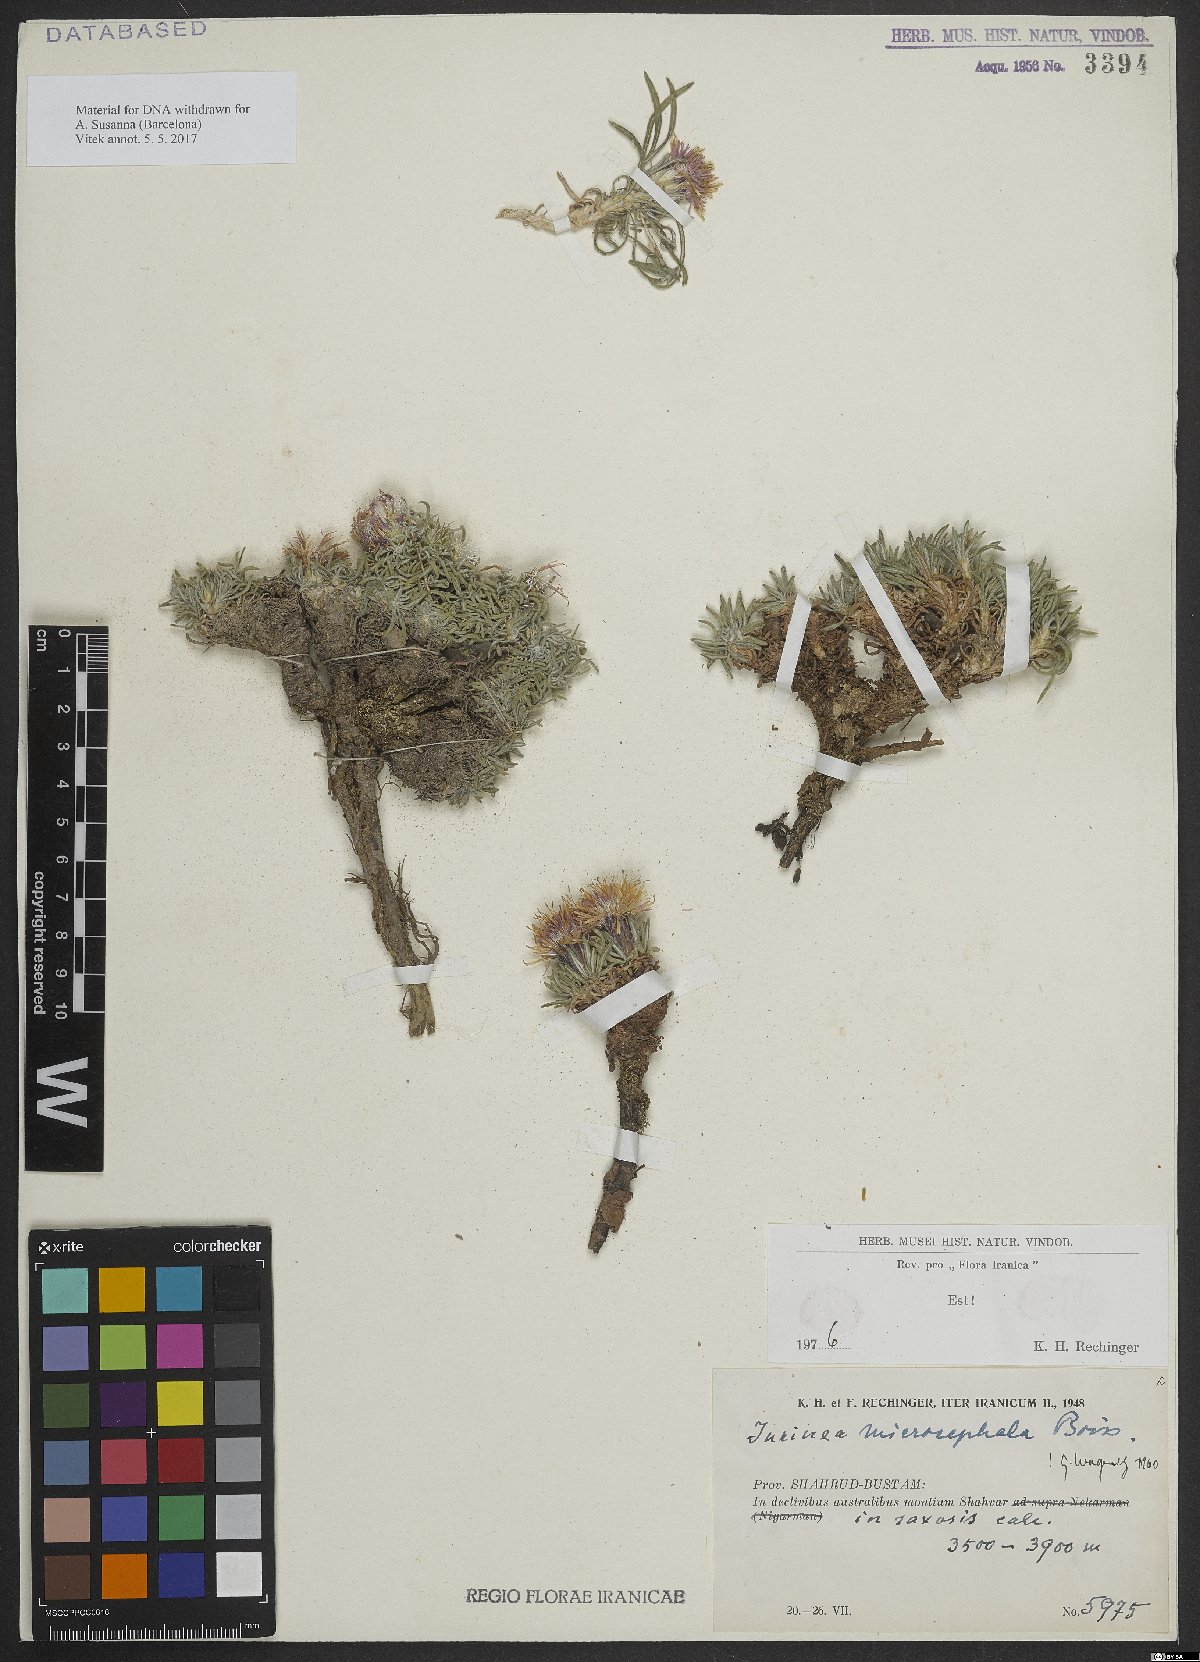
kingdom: Plantae
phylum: Tracheophyta
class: Magnoliopsida
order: Asterales
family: Asteraceae
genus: Jurinea
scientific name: Jurinea microcephala
